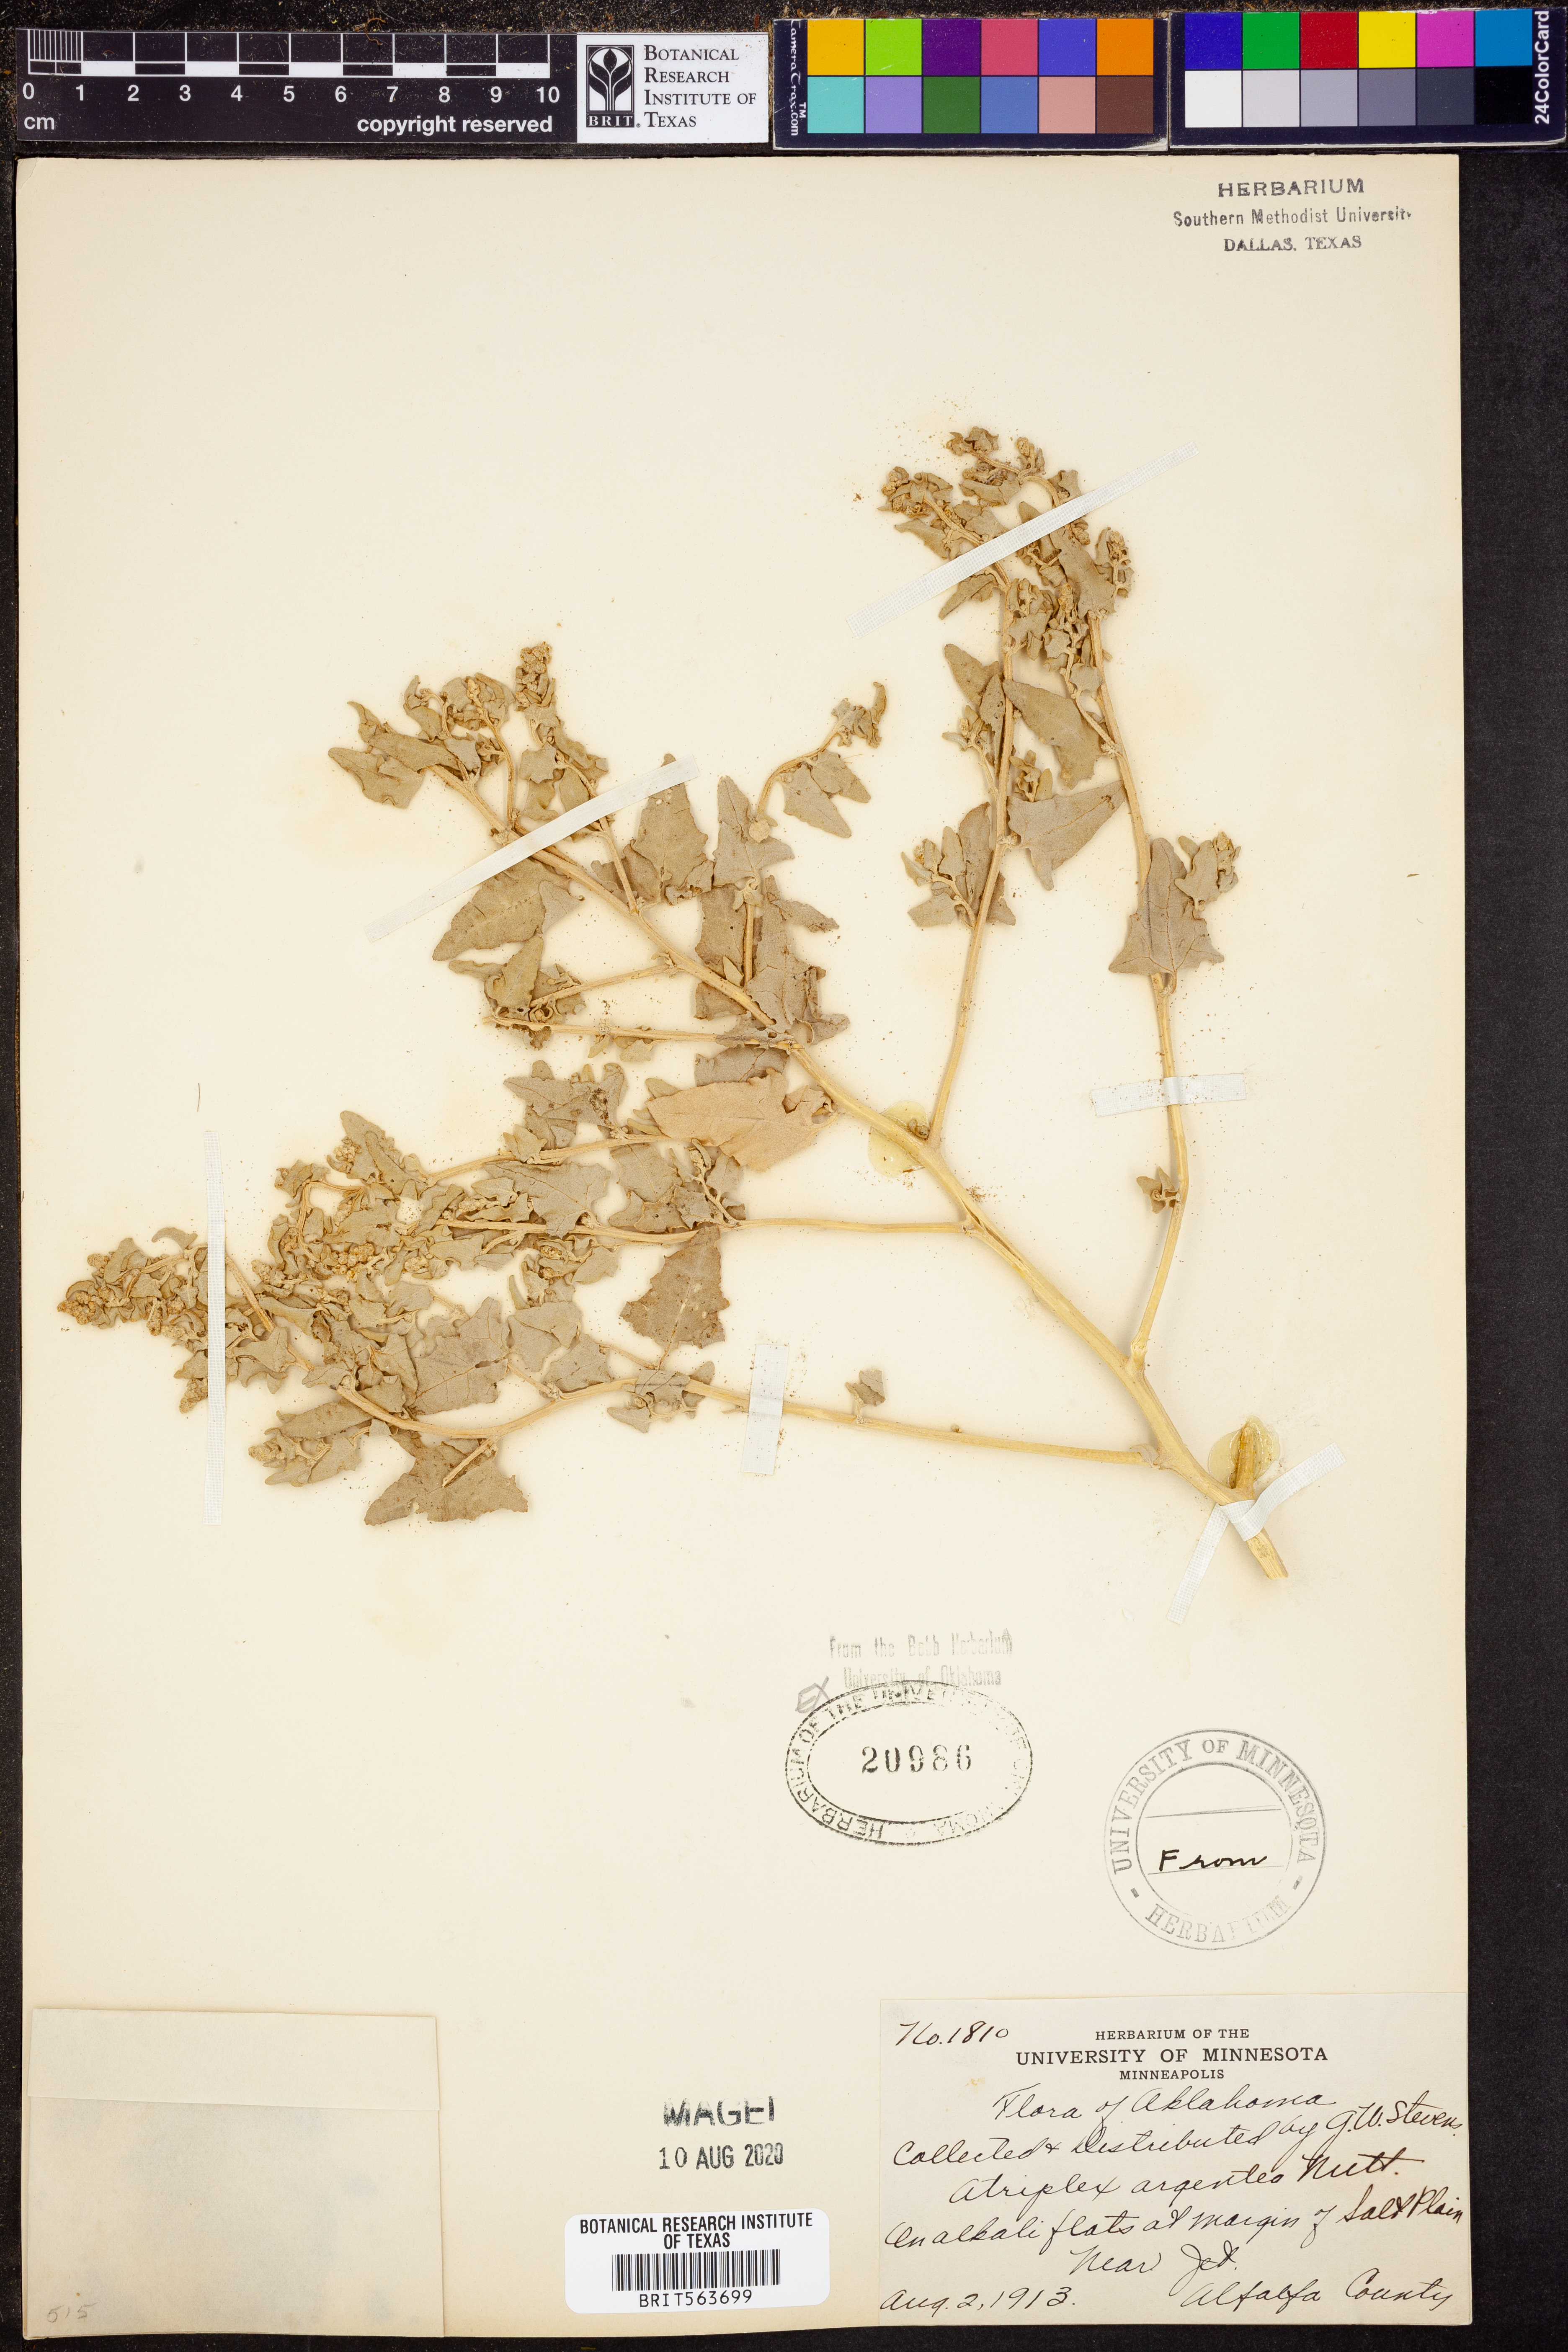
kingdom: Plantae
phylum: Tracheophyta
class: Magnoliopsida
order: Caryophyllales
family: Amaranthaceae
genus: Atriplex
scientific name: Atriplex argentea
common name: Silverscale
